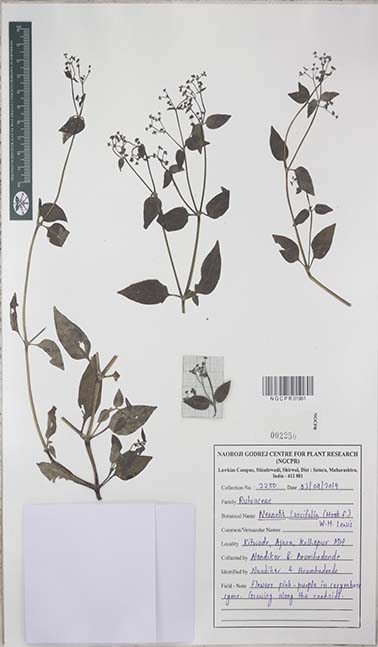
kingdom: Plantae
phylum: Tracheophyta
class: Magnoliopsida
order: Gentianales
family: Rubiaceae
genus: Neanotis
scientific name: Neanotis latifolia
